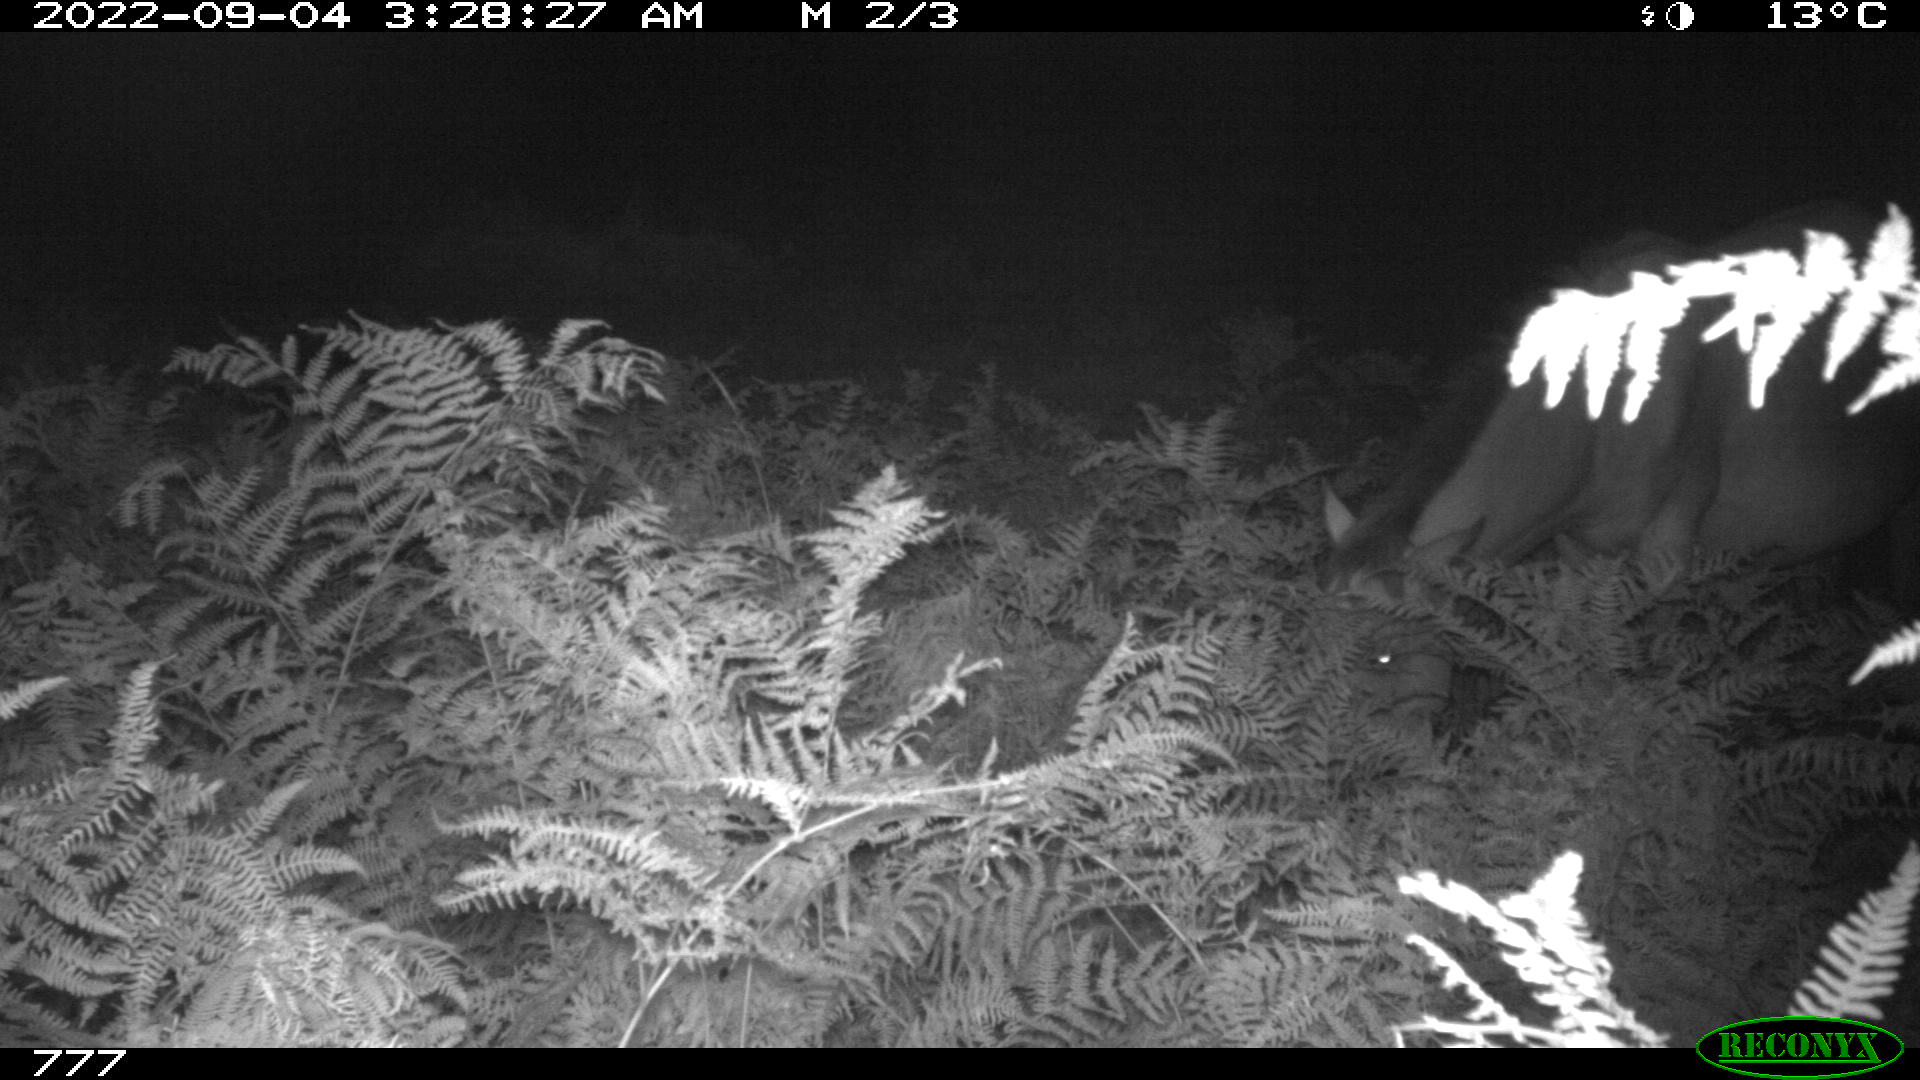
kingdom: Animalia
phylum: Chordata
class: Mammalia
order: Perissodactyla
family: Equidae
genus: Equus
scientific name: Equus caballus
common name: Horse
